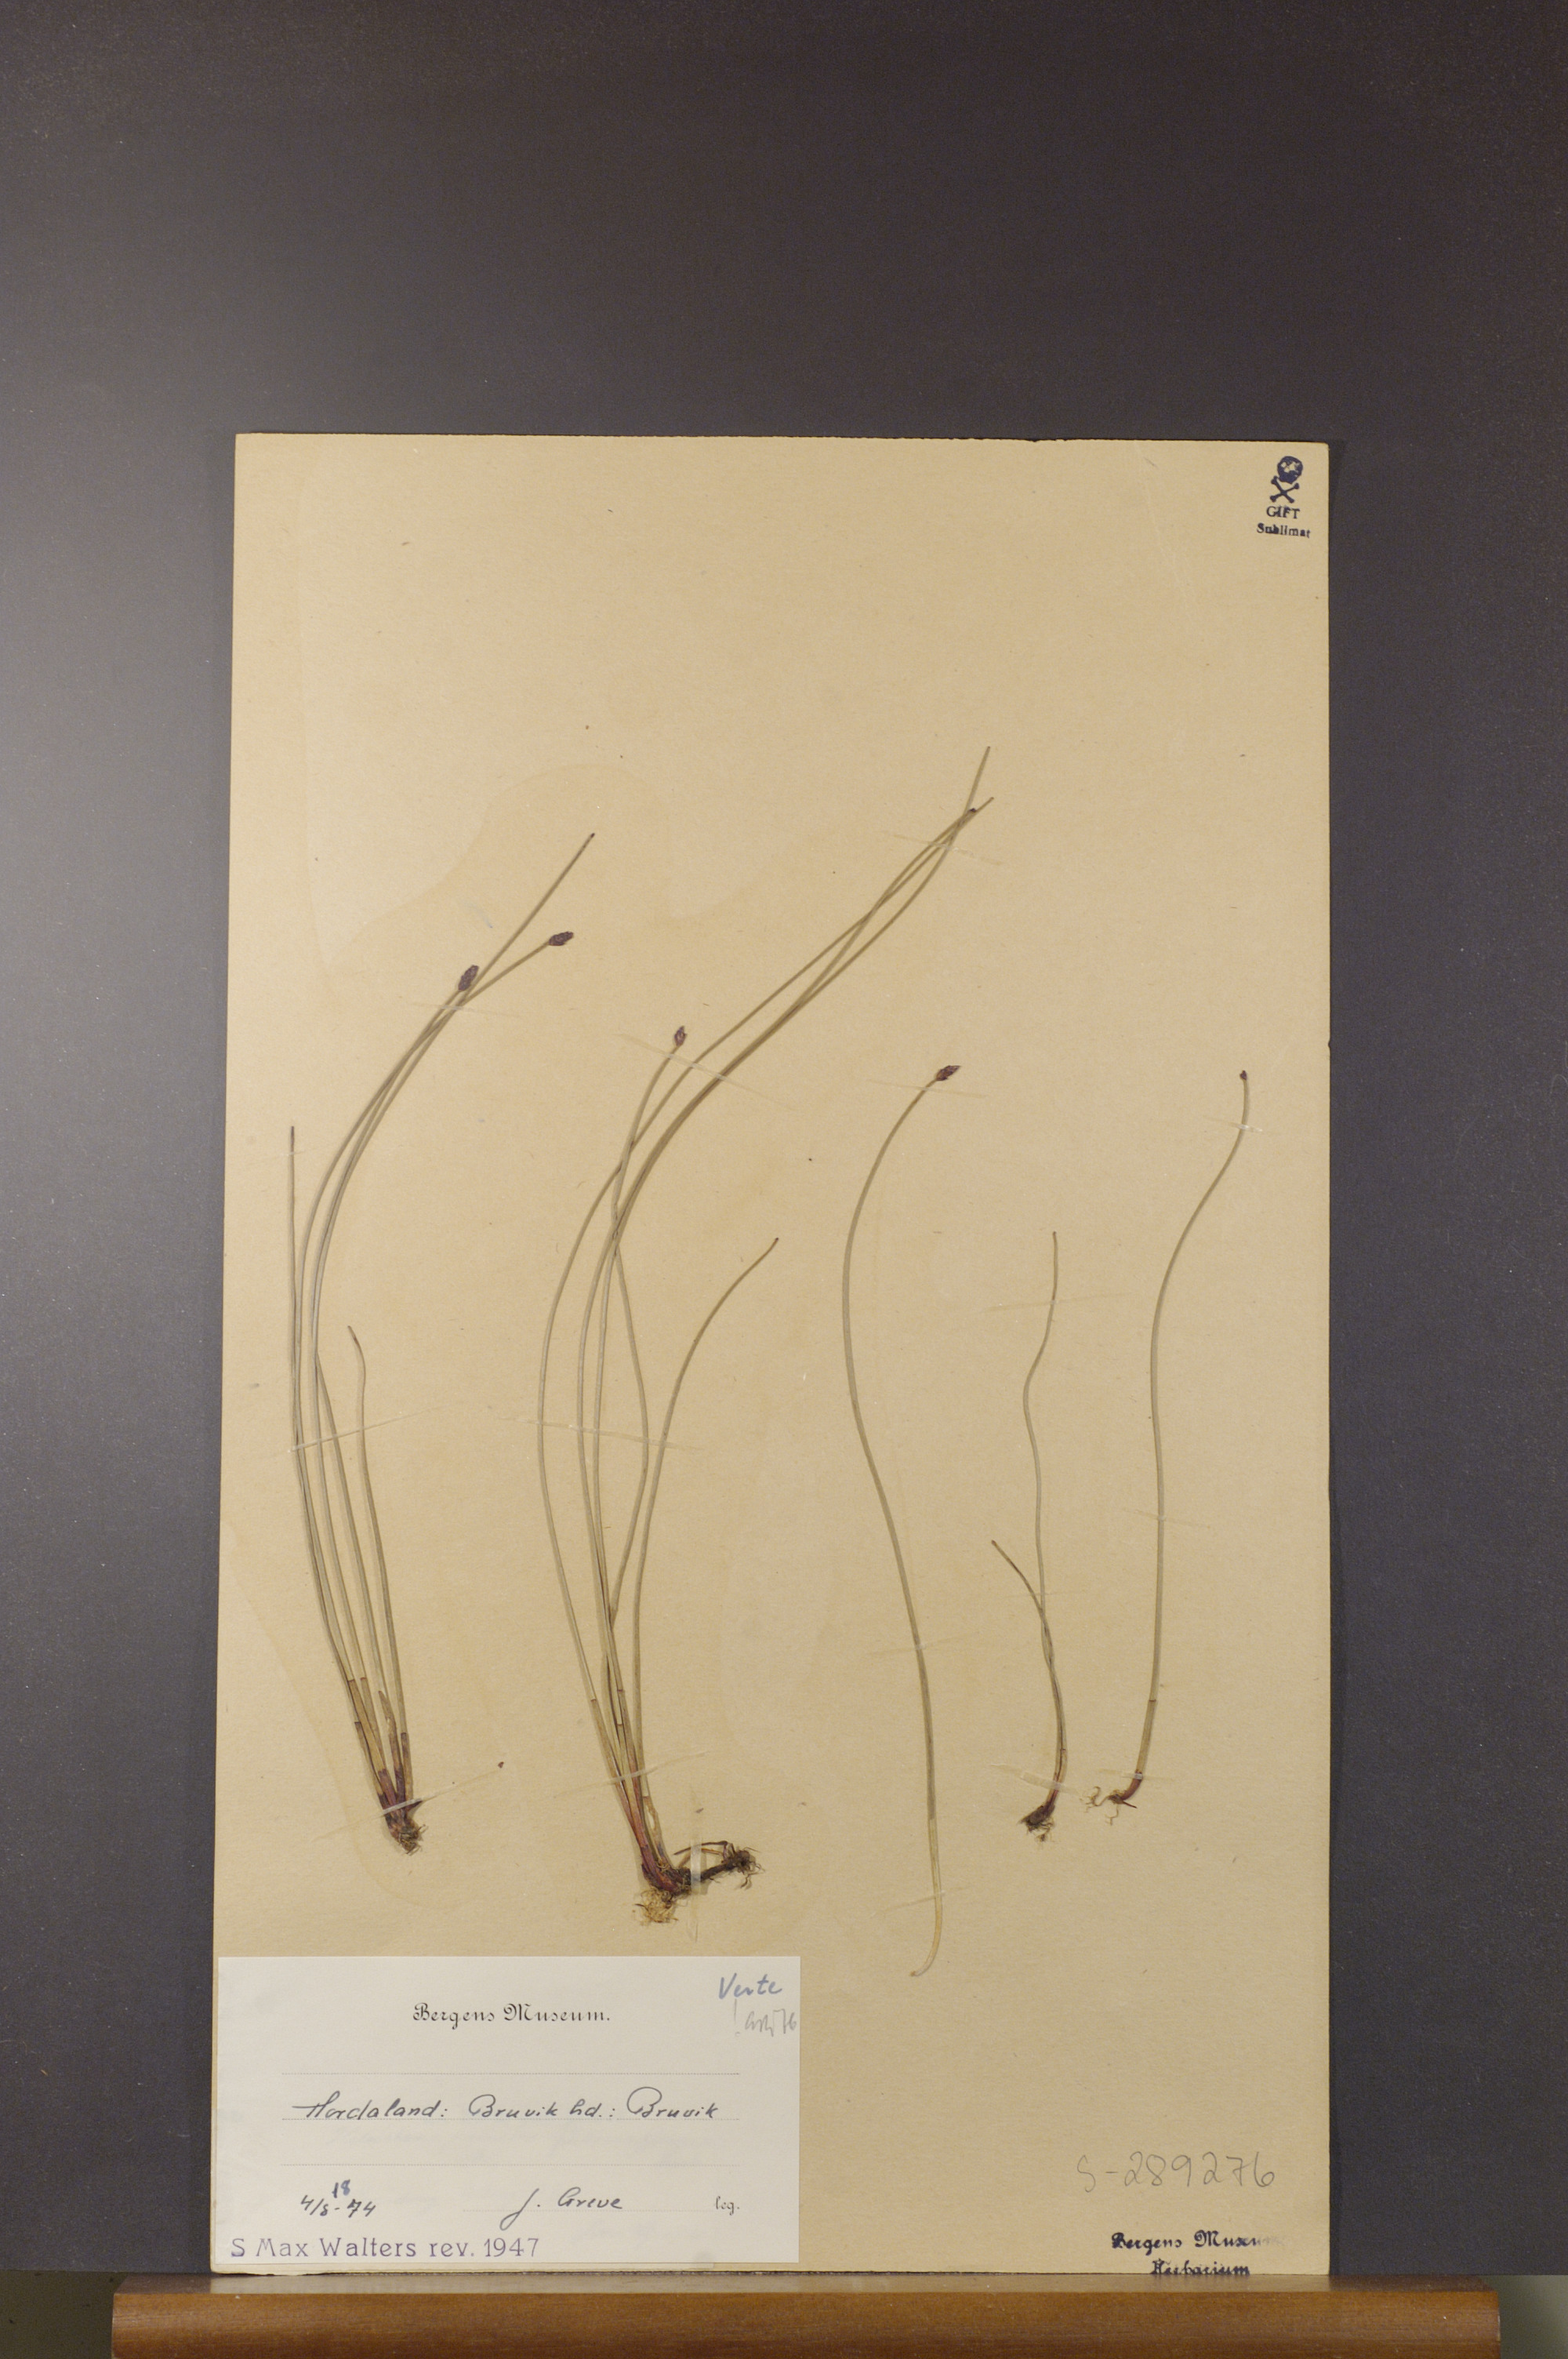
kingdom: Plantae
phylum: Tracheophyta
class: Liliopsida
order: Poales
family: Cyperaceae
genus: Eleocharis
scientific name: Eleocharis uniglumis
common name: Slender spike-rush
